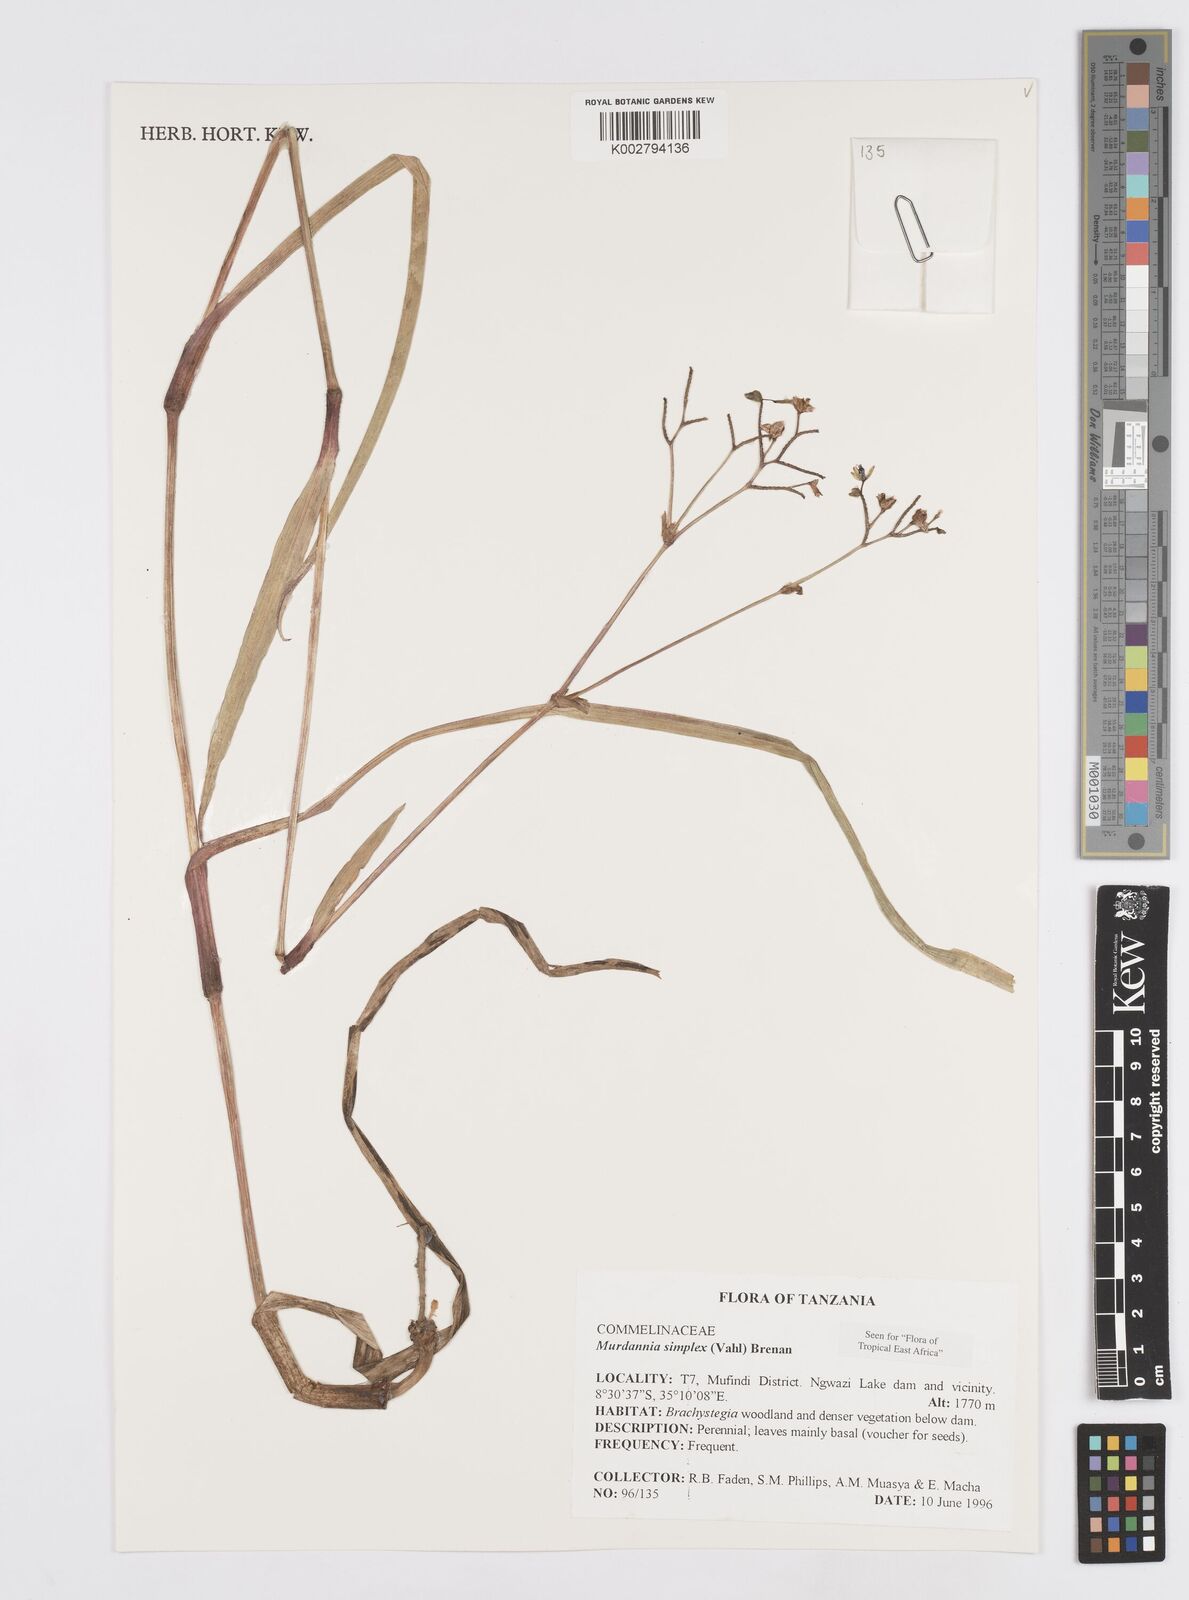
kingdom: Plantae
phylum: Tracheophyta
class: Liliopsida
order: Commelinales
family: Commelinaceae
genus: Murdannia
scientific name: Murdannia simplex
